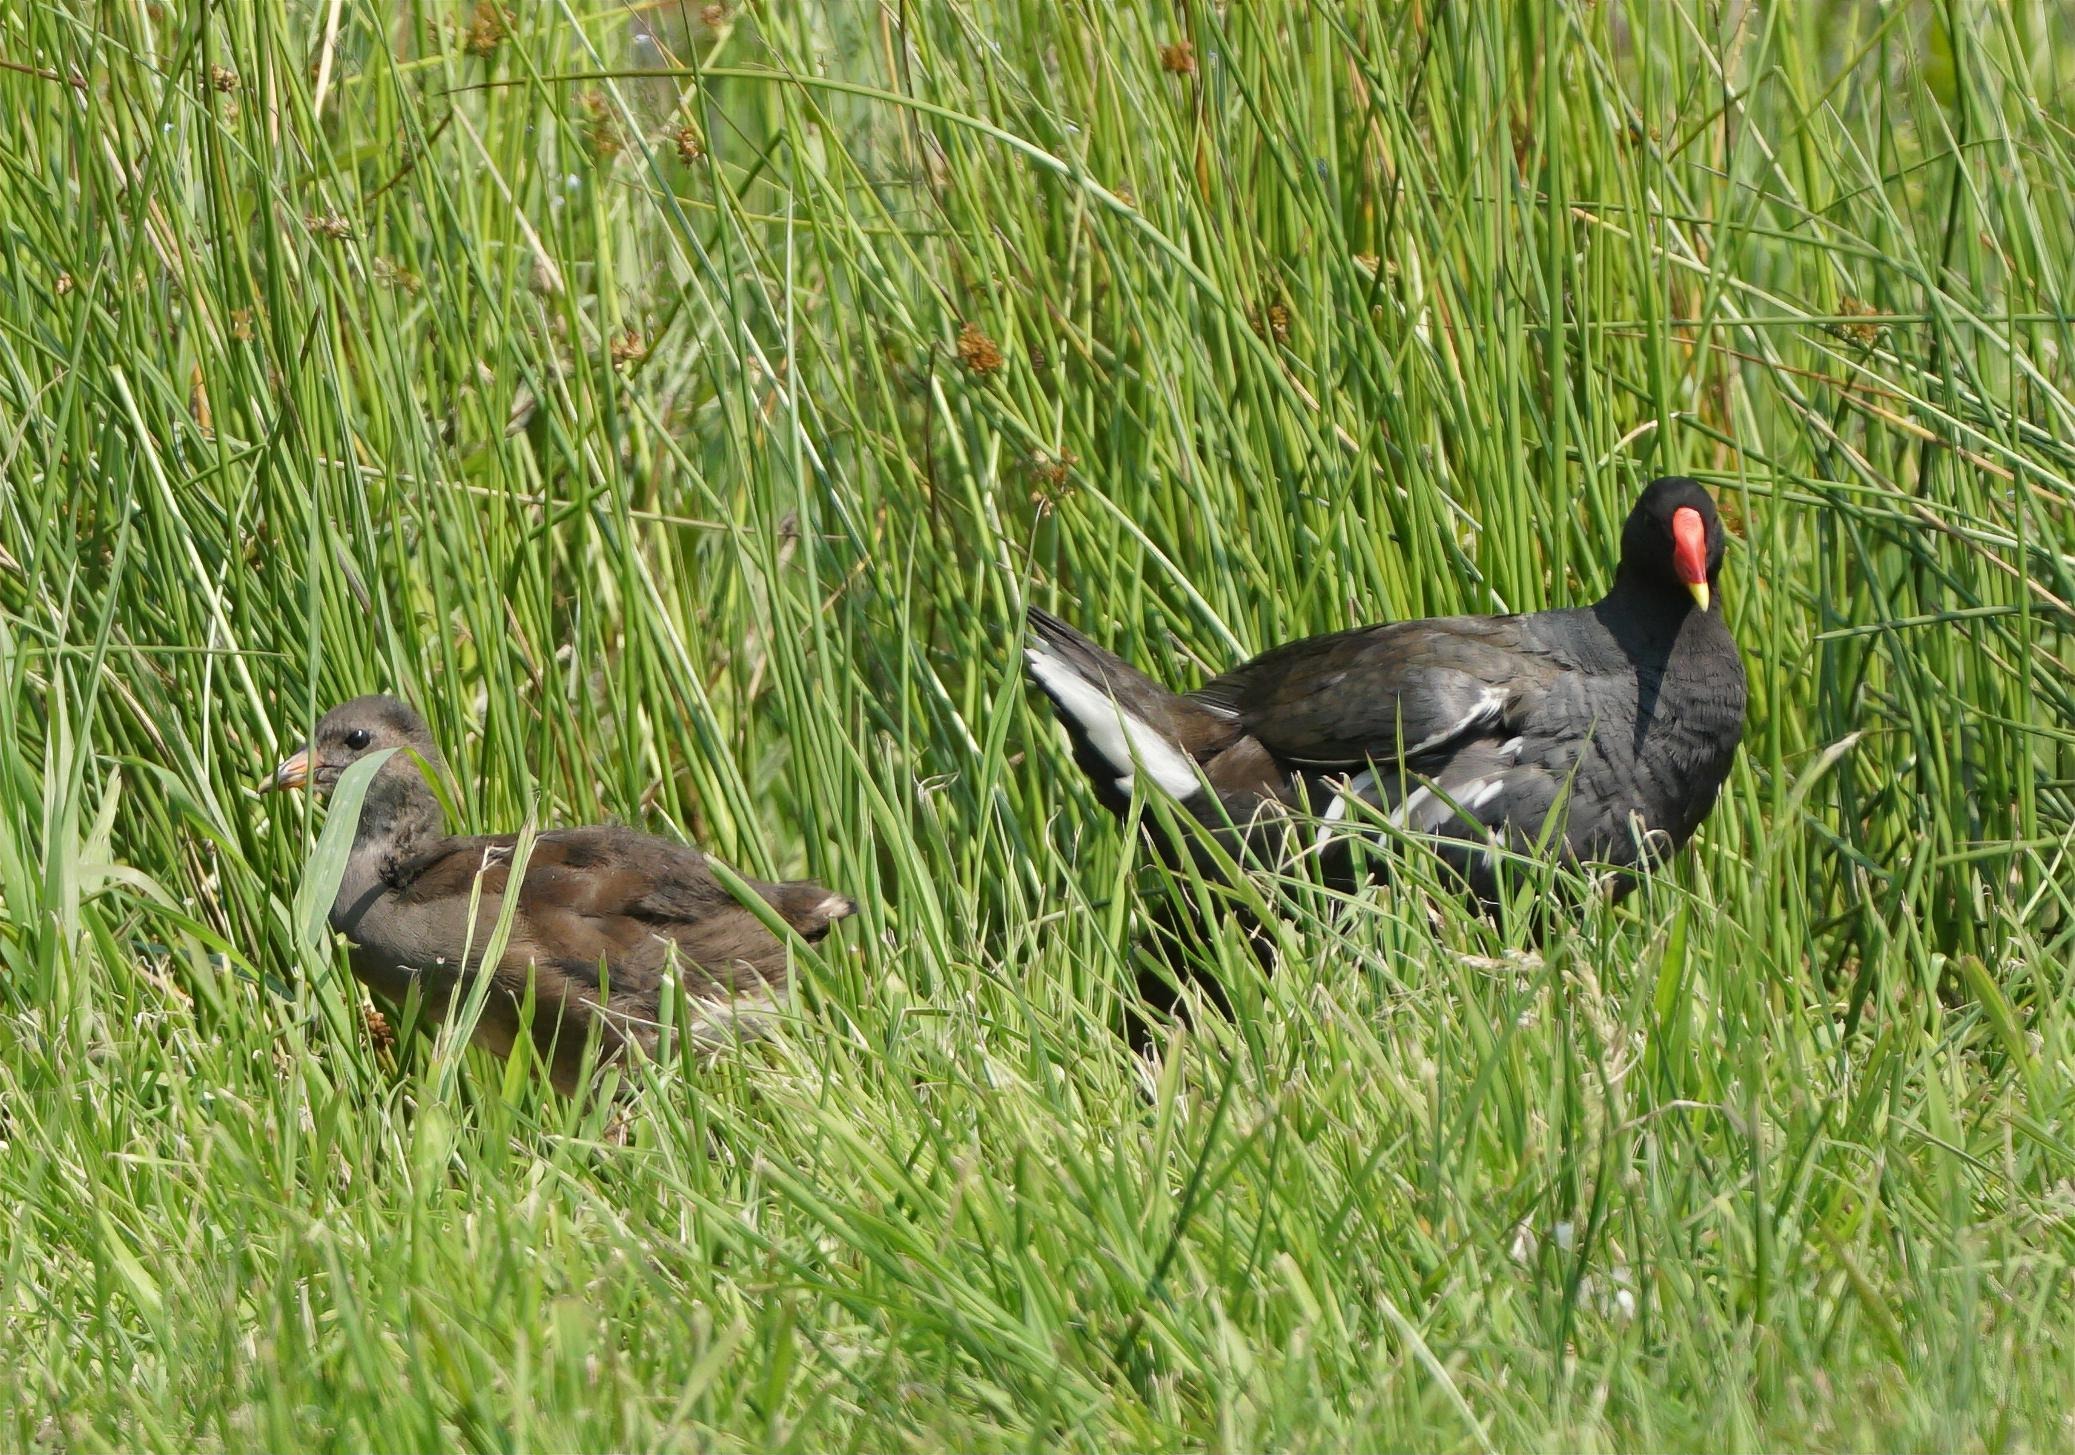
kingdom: Animalia
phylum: Chordata
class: Aves
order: Gruiformes
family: Rallidae
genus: Gallinula
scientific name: Gallinula chloropus
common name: Grønbenet rørhøne
